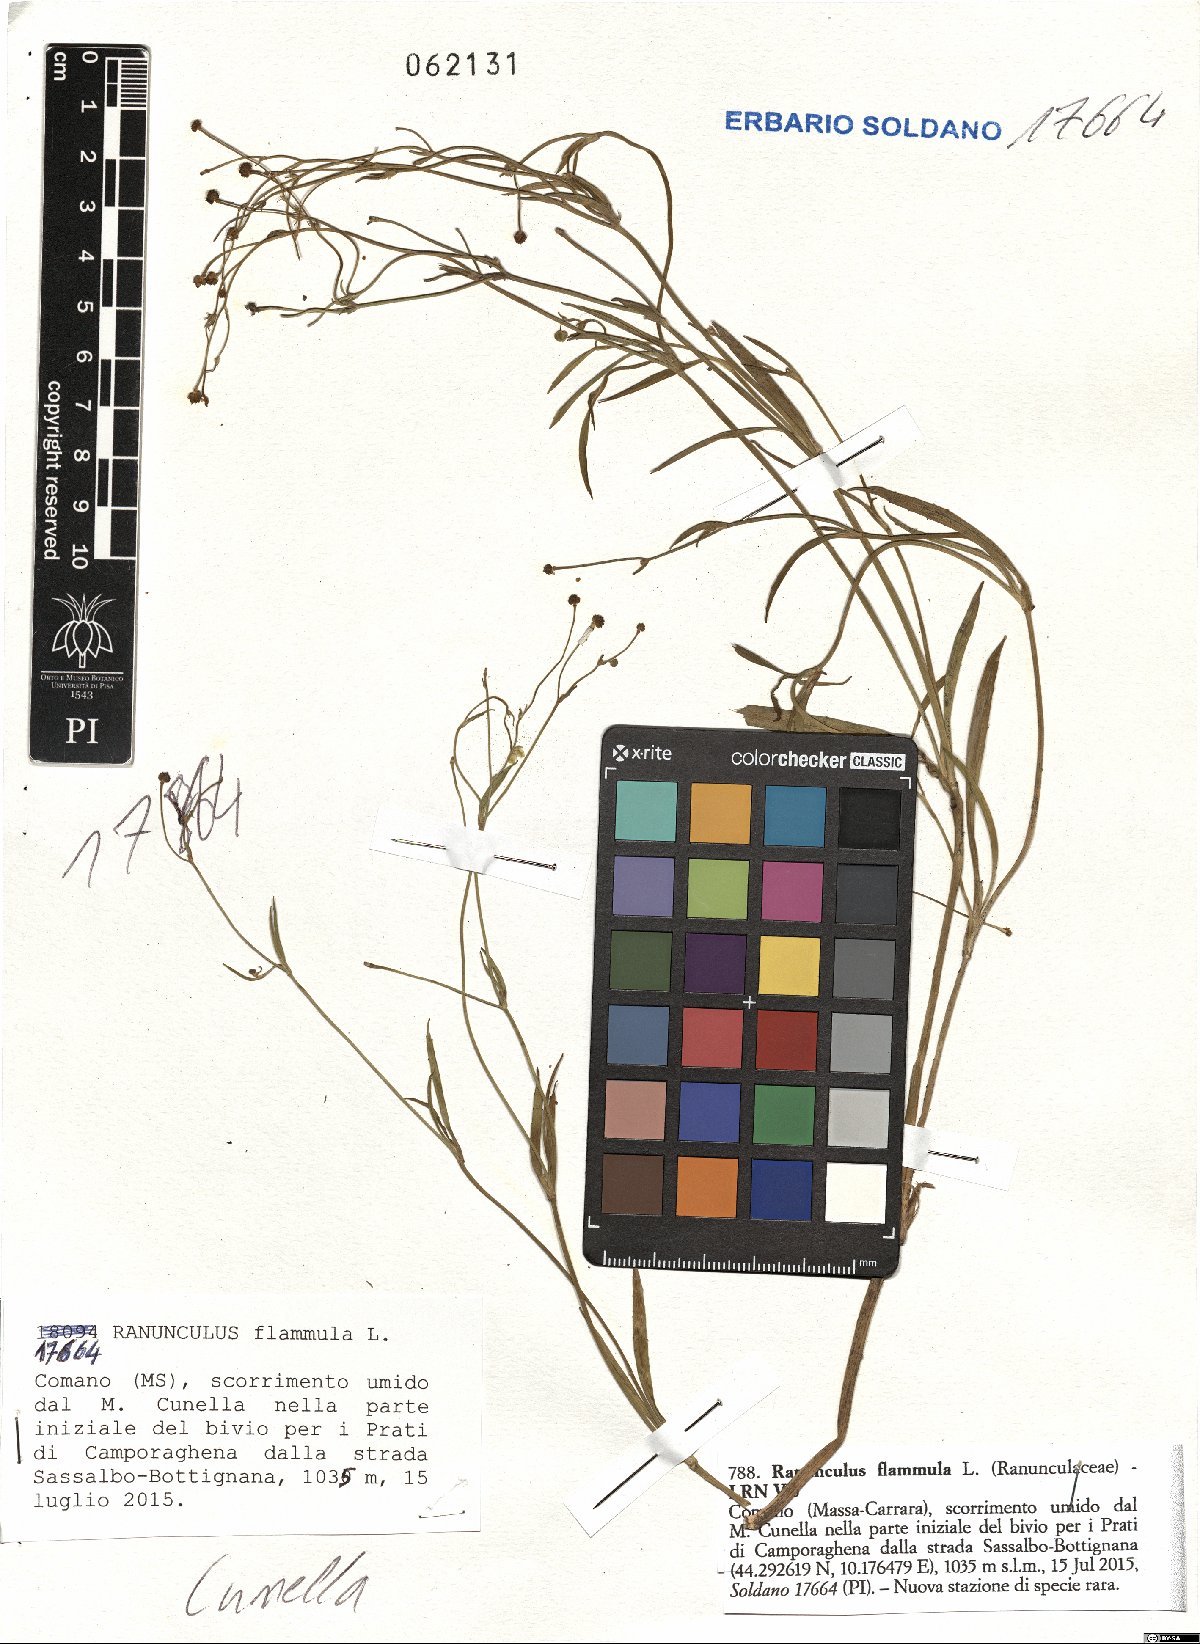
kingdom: Plantae
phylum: Tracheophyta
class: Magnoliopsida
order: Ranunculales
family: Ranunculaceae
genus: Ranunculus
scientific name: Ranunculus flammula
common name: Lesser spearwort
